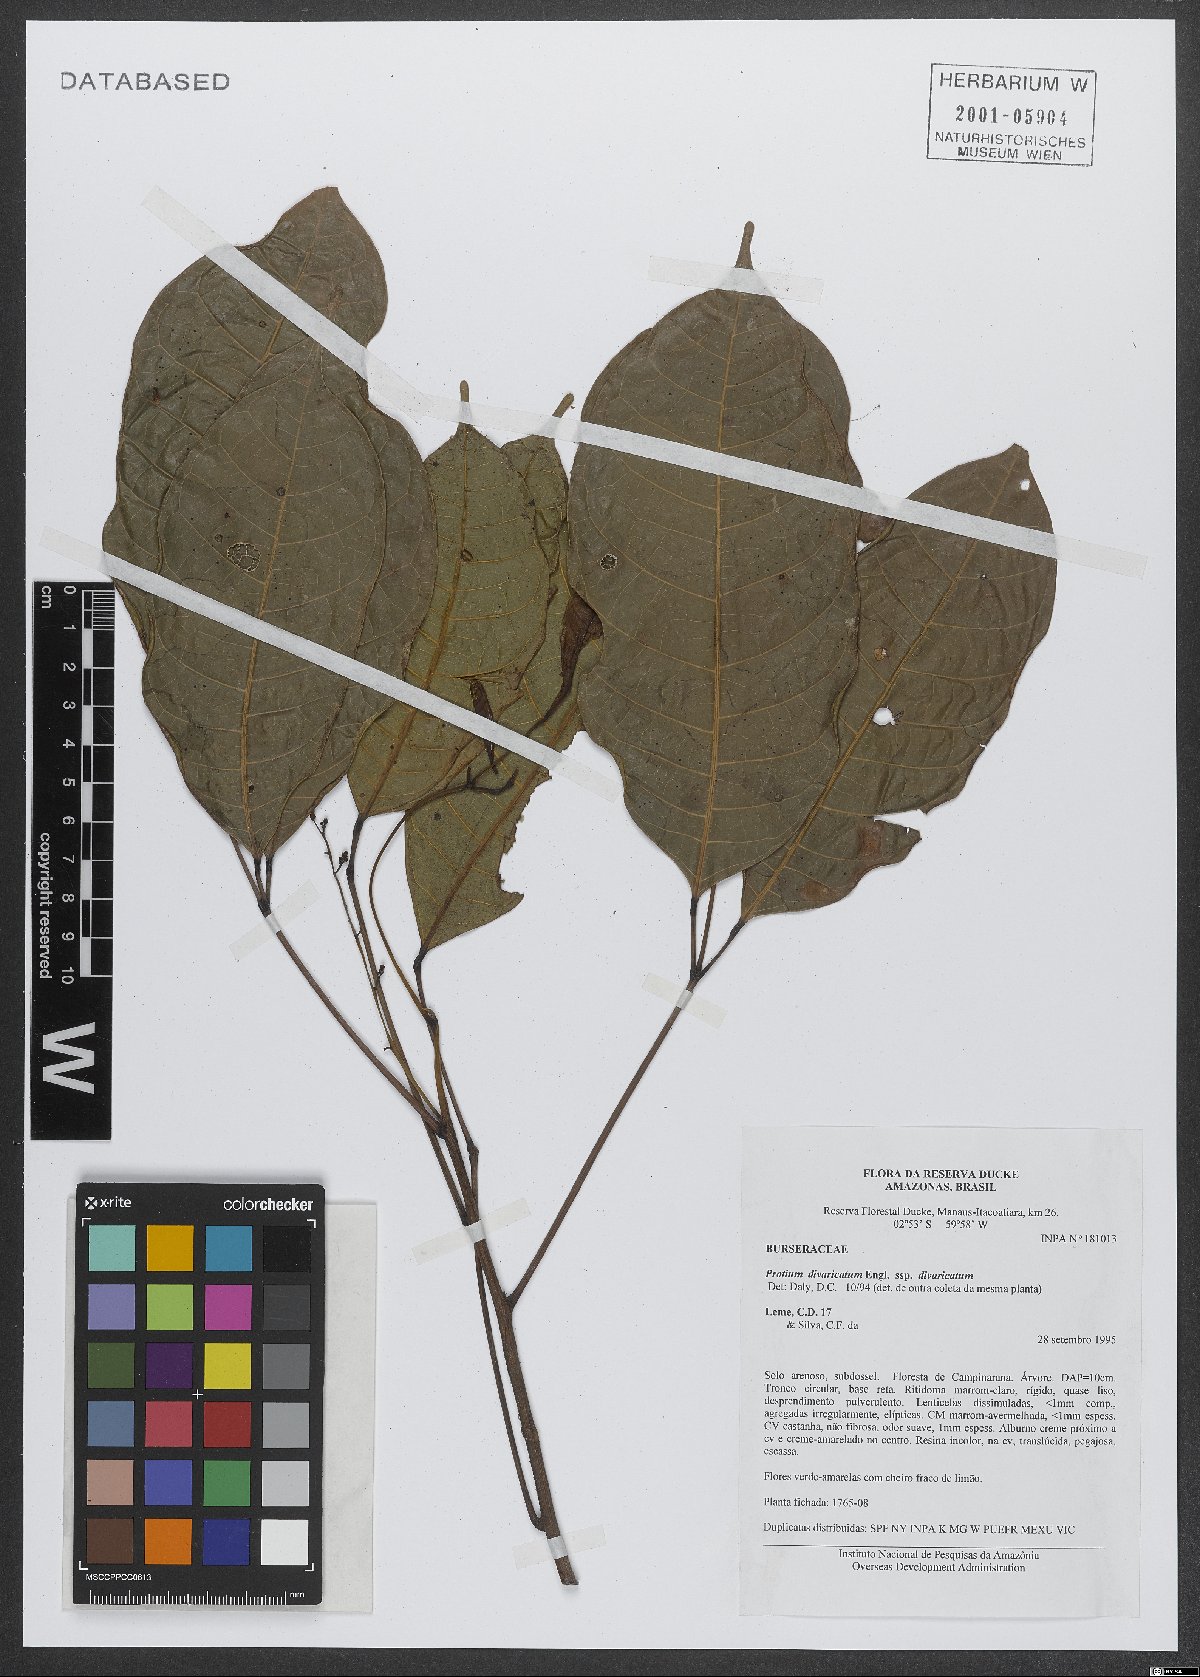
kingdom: Plantae
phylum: Tracheophyta
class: Magnoliopsida
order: Sapindales
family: Burseraceae
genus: Protium
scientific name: Protium divaricatum
